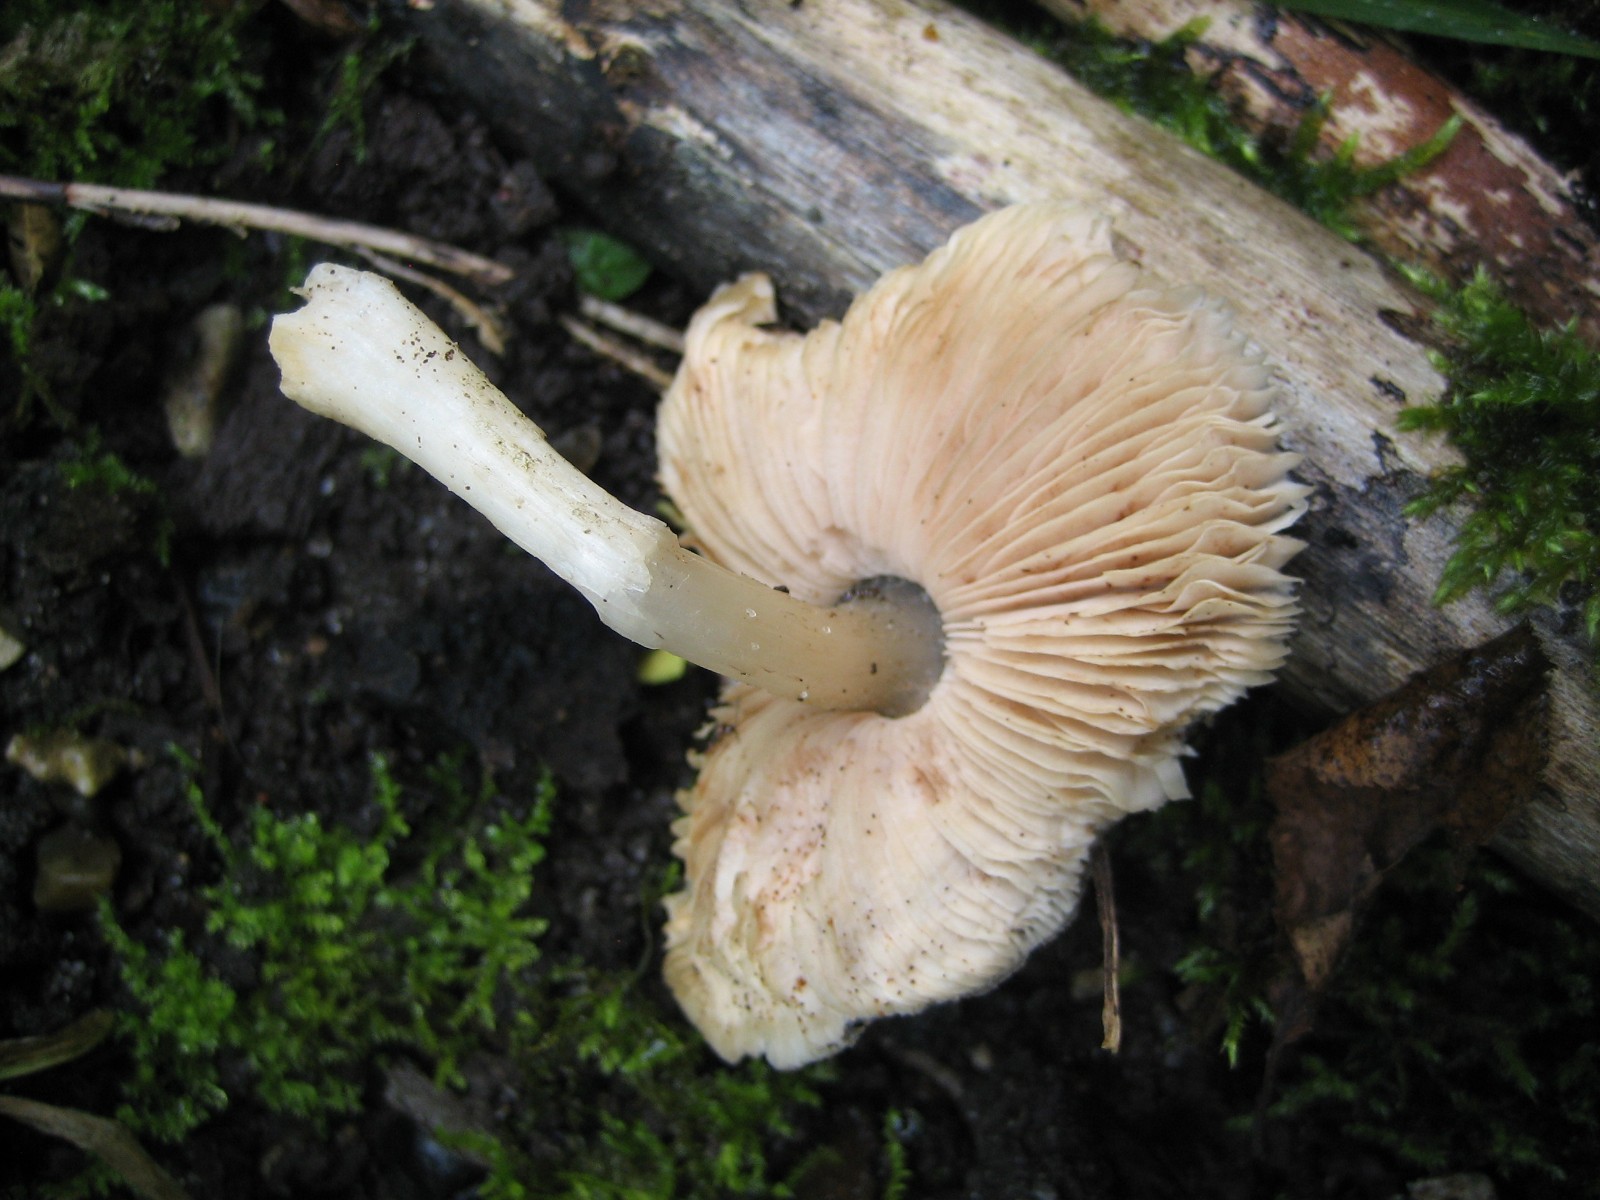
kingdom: Fungi
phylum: Basidiomycota
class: Agaricomycetes
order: Agaricales
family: Pluteaceae
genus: Pluteus
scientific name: Pluteus
